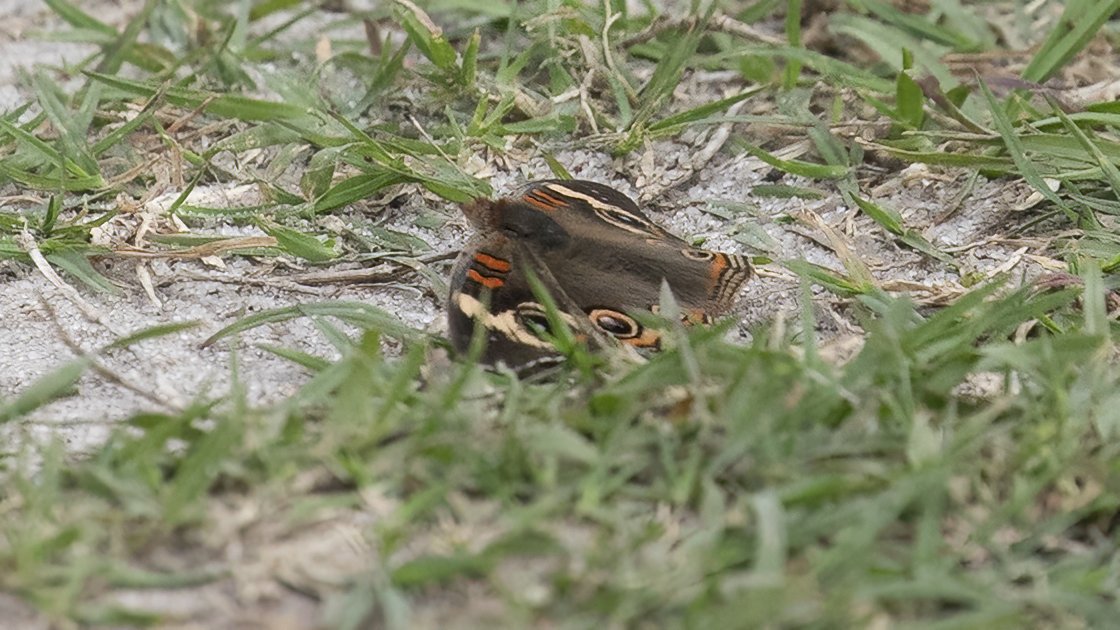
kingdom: Animalia
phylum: Arthropoda
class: Insecta
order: Lepidoptera
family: Nymphalidae
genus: Junonia
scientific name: Junonia coenia
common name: Common Buckeye
